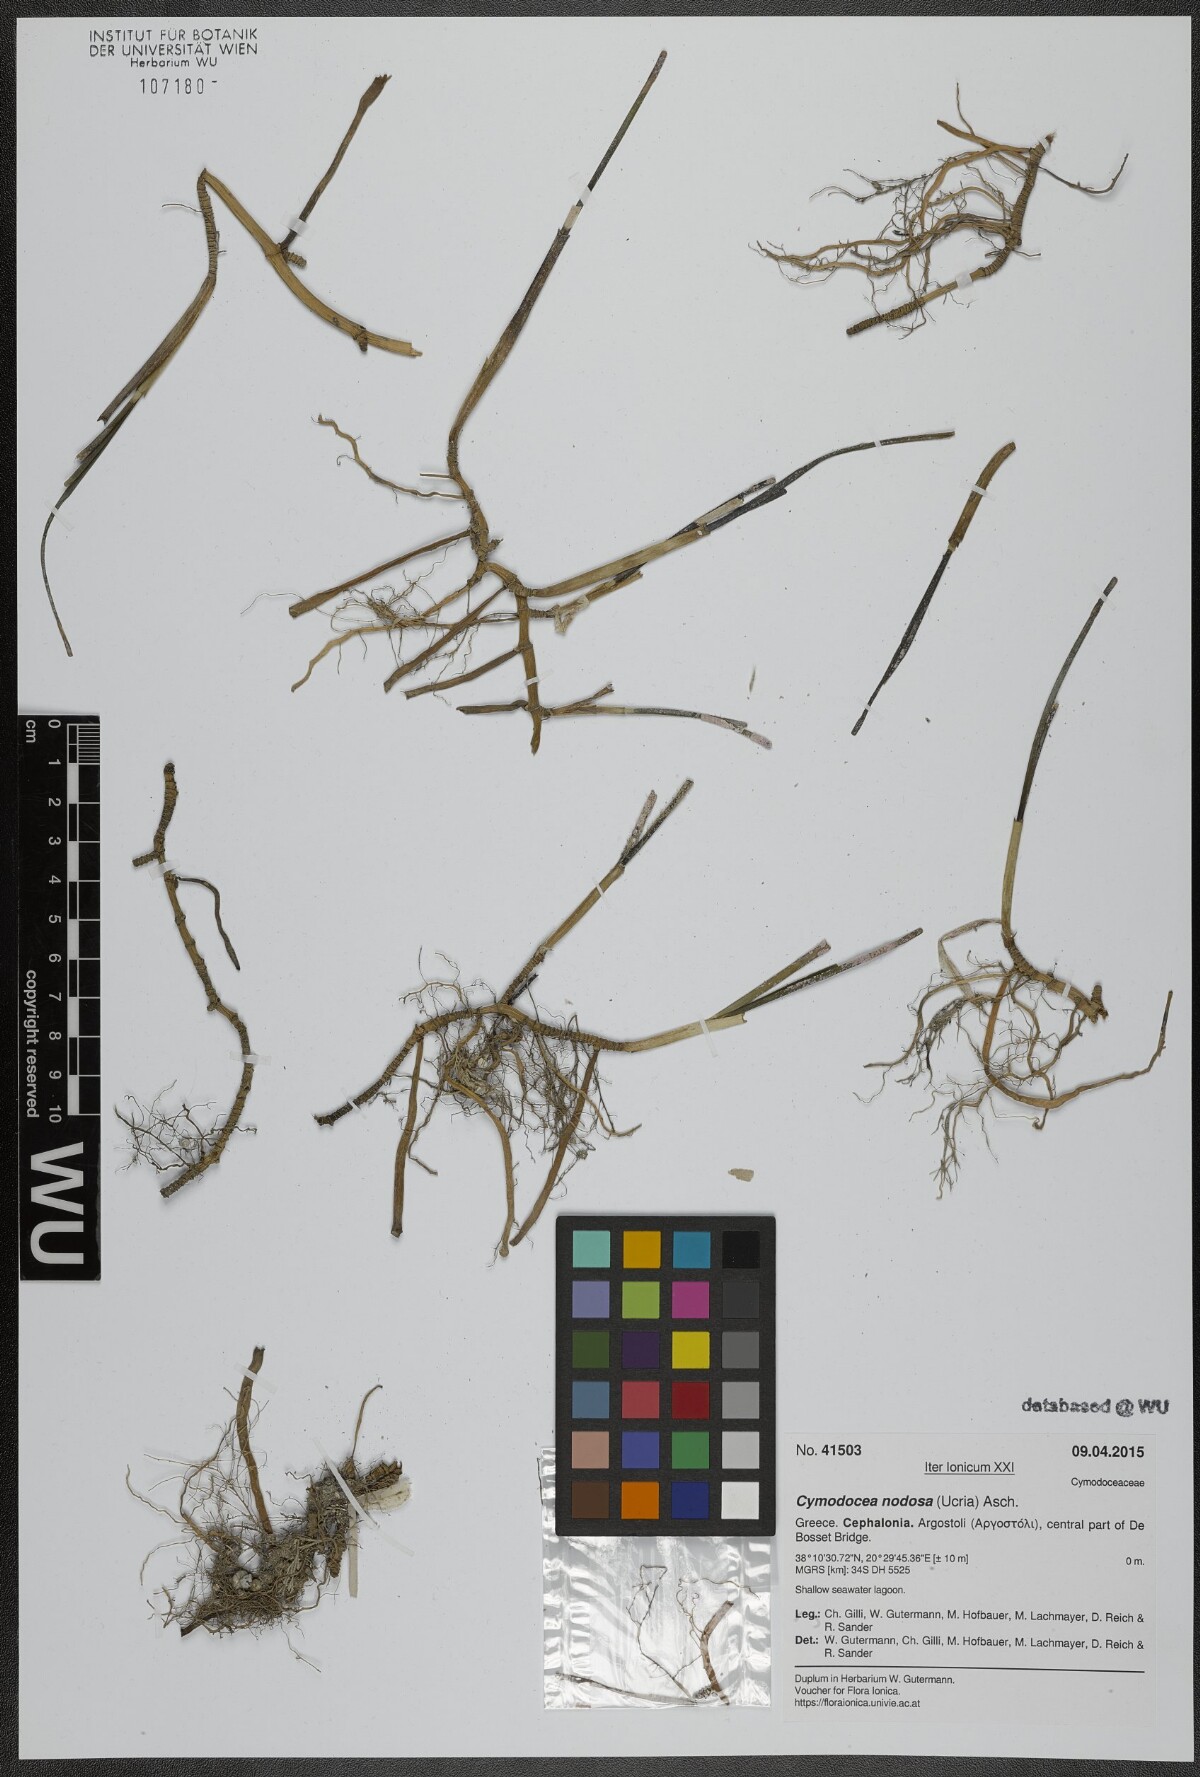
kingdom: Plantae
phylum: Tracheophyta
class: Liliopsida
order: Alismatales
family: Cymodoceaceae
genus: Cymodocea
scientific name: Cymodocea nodosa
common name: Slender seagrass
